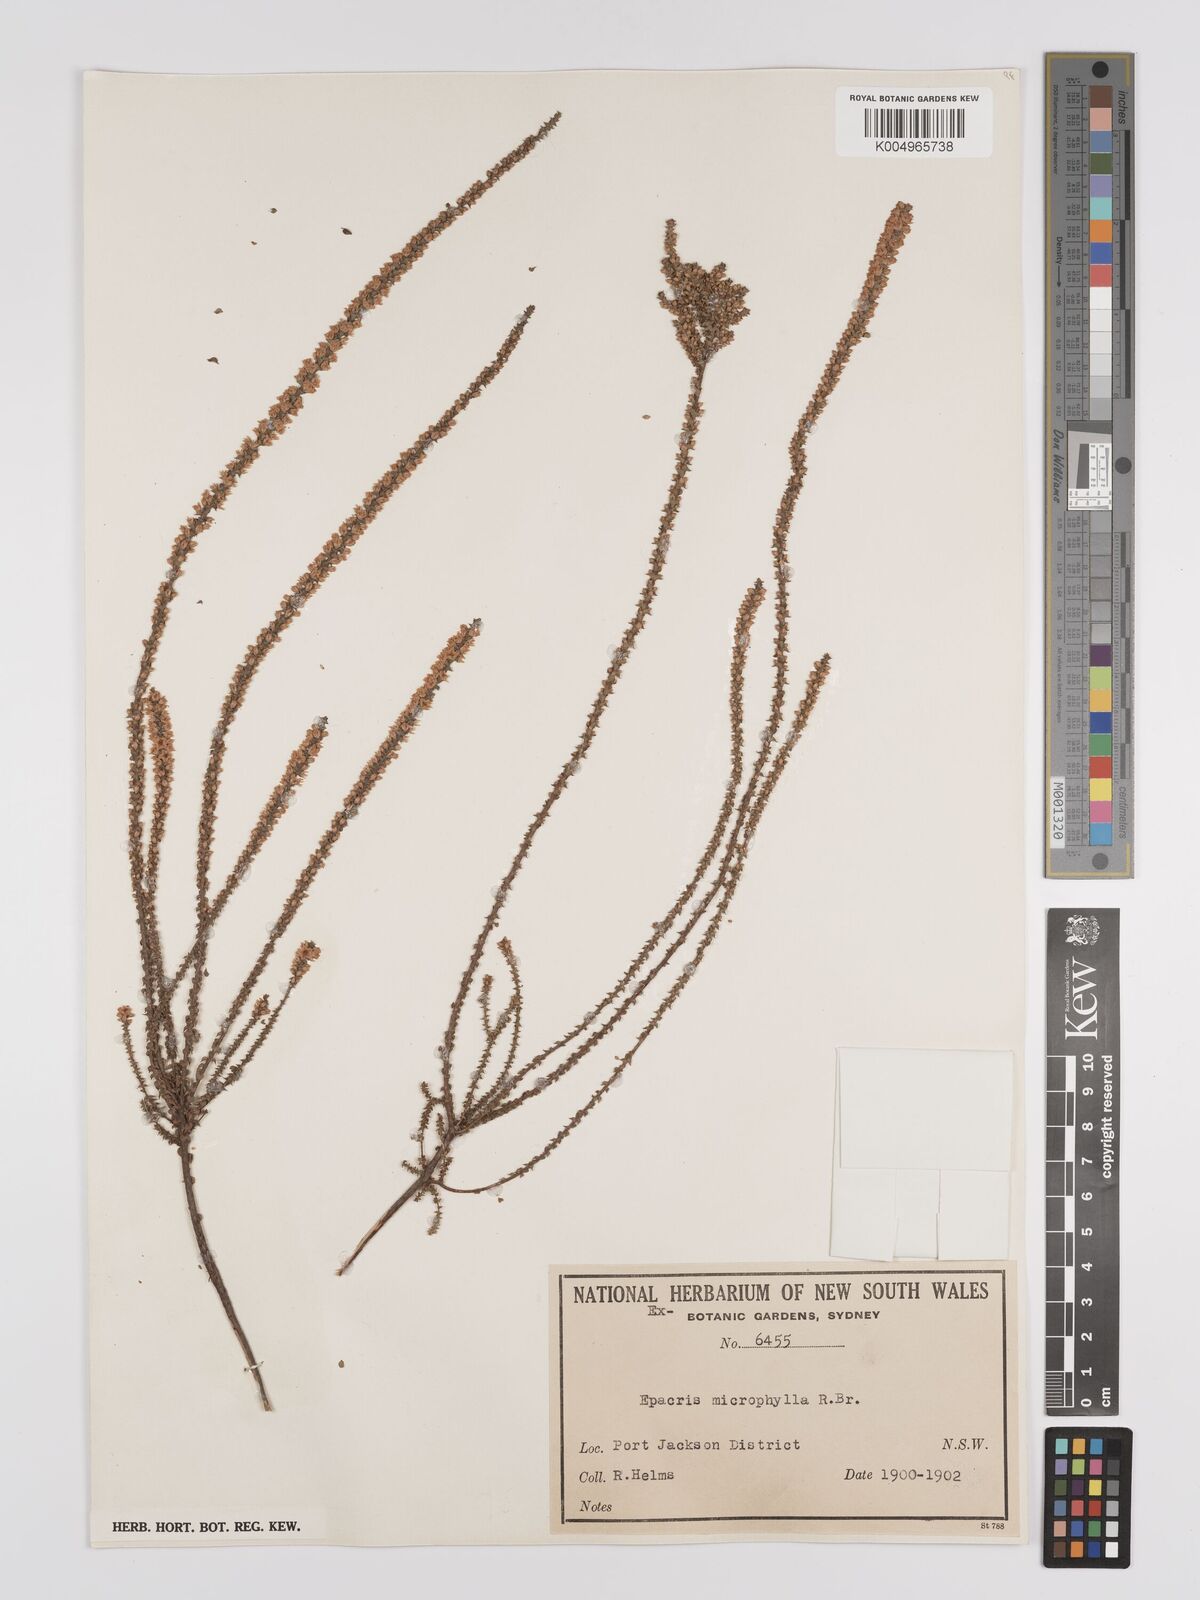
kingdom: Plantae
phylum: Tracheophyta
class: Magnoliopsida
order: Ericales
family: Ericaceae
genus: Epacris
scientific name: Epacris
